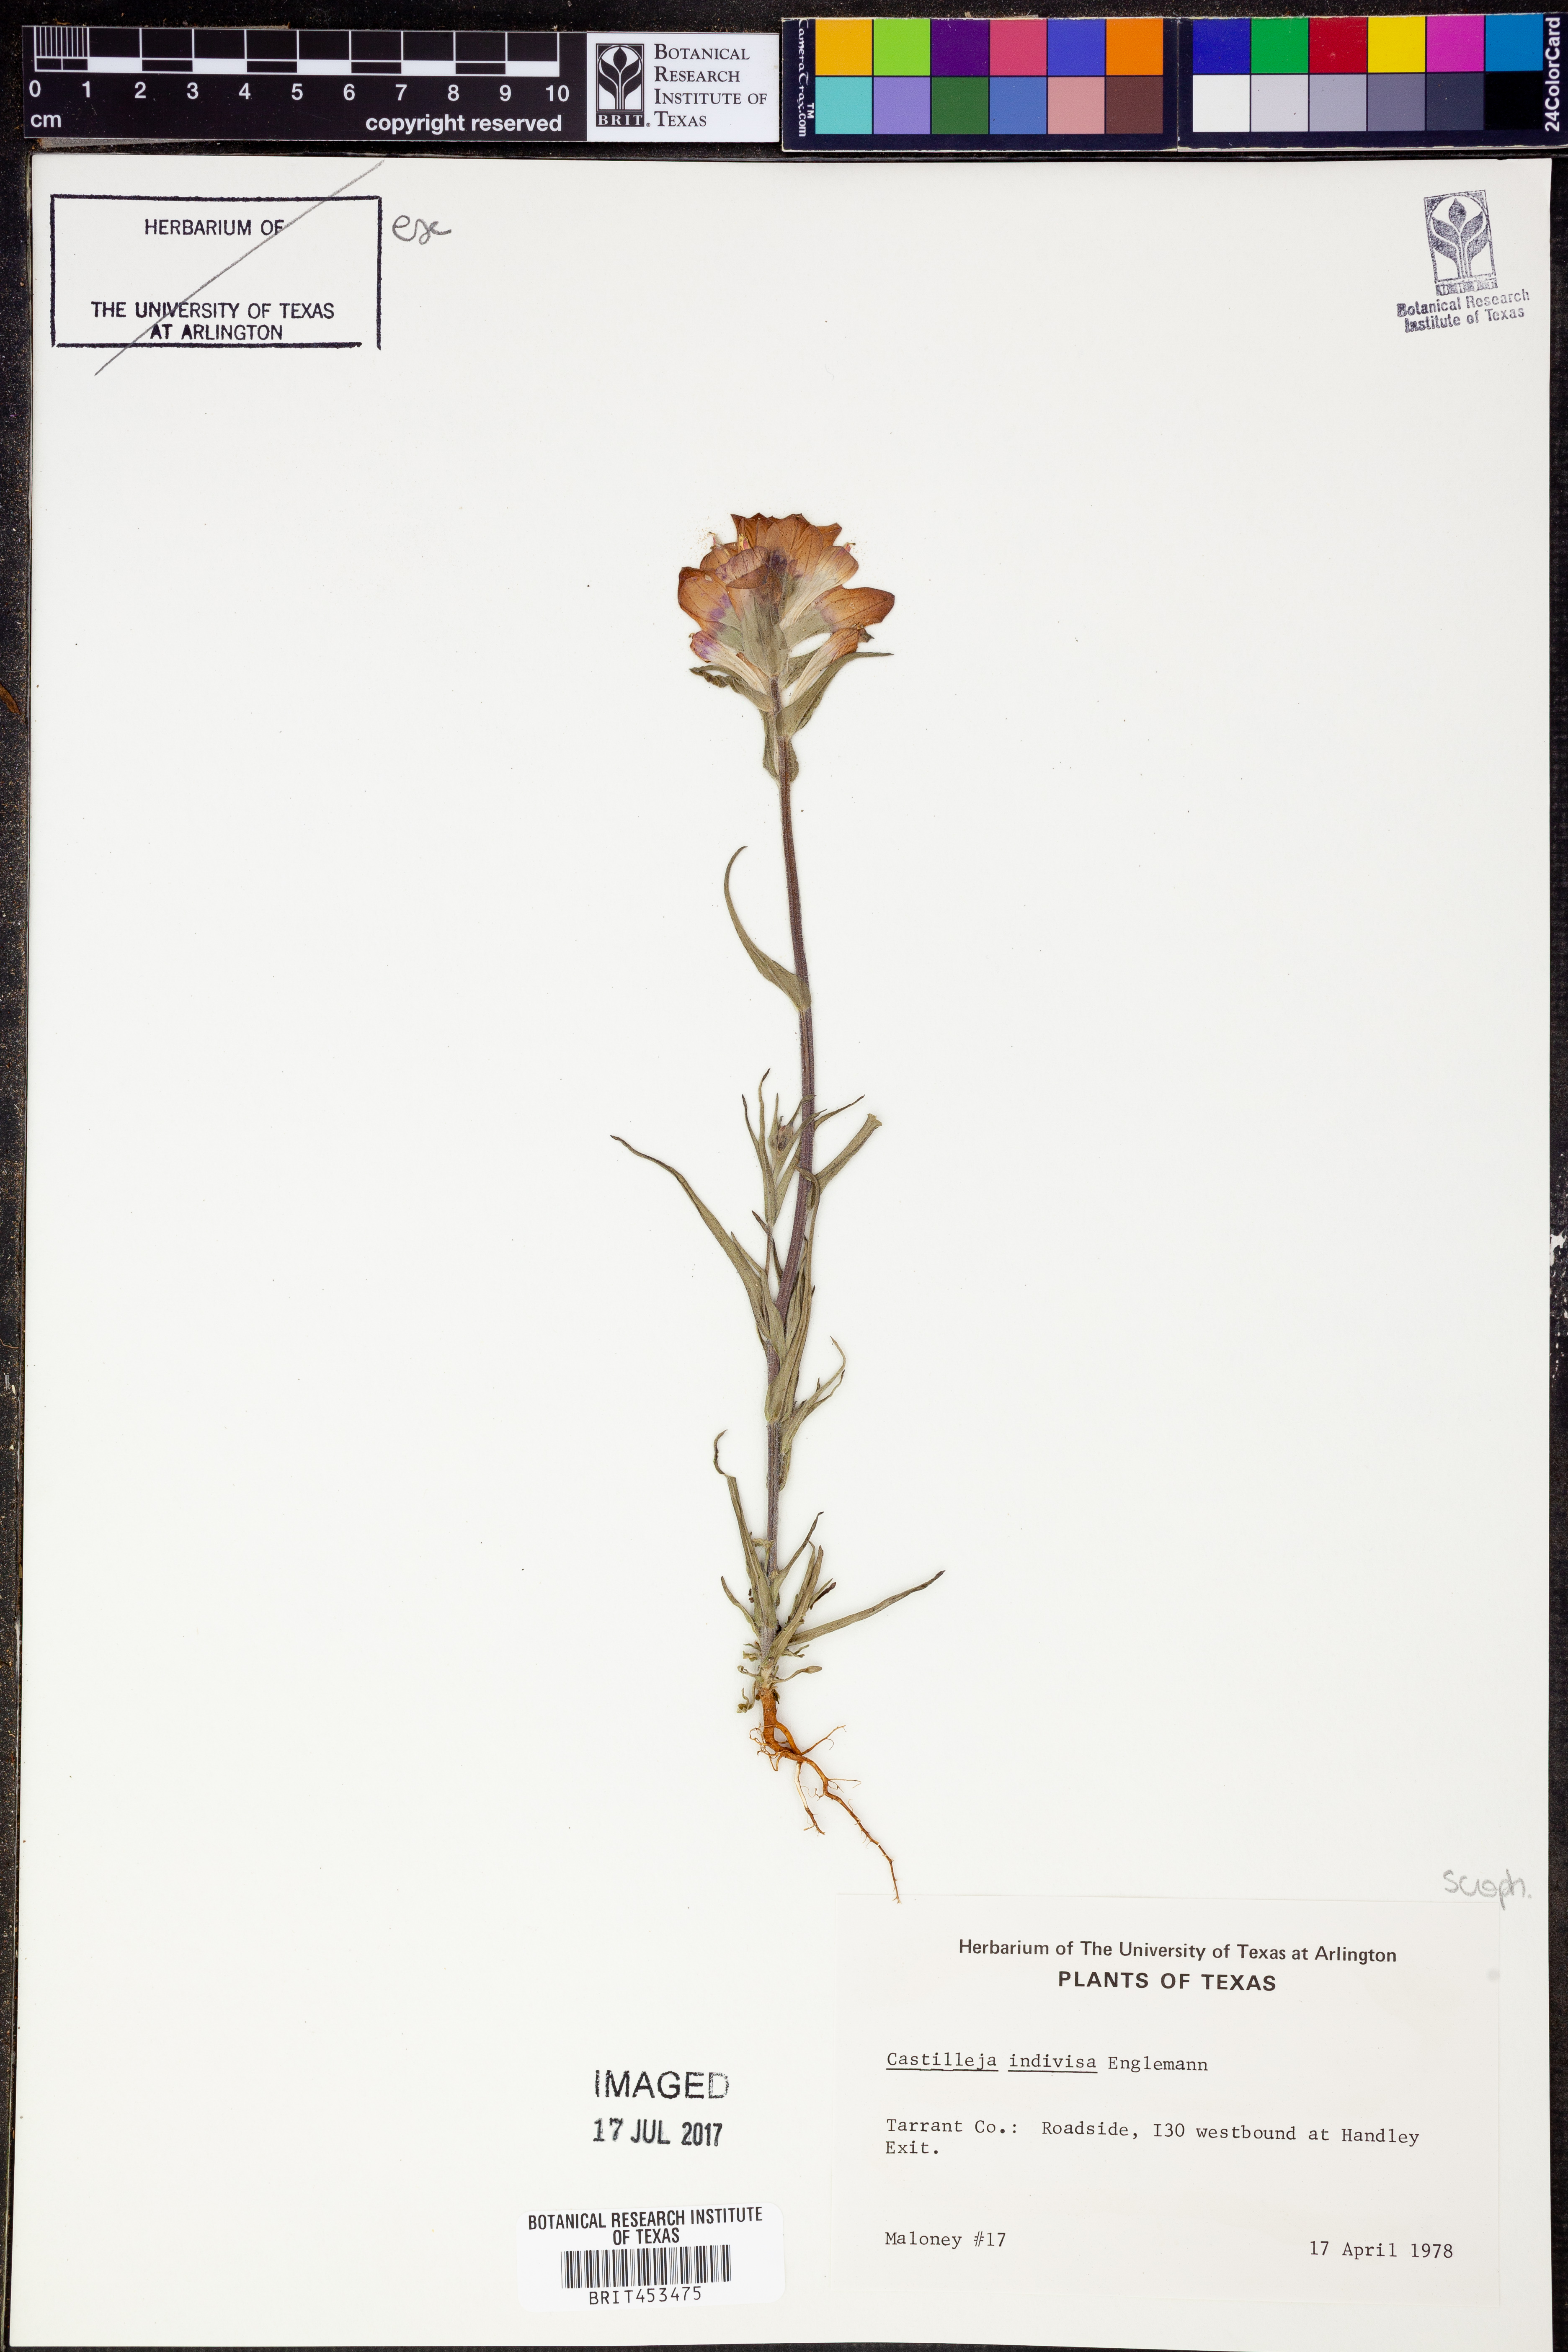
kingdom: Plantae
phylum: Tracheophyta
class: Magnoliopsida
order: Lamiales
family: Orobanchaceae
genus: Castilleja
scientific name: Castilleja indivisa
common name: Texas paintbrush
